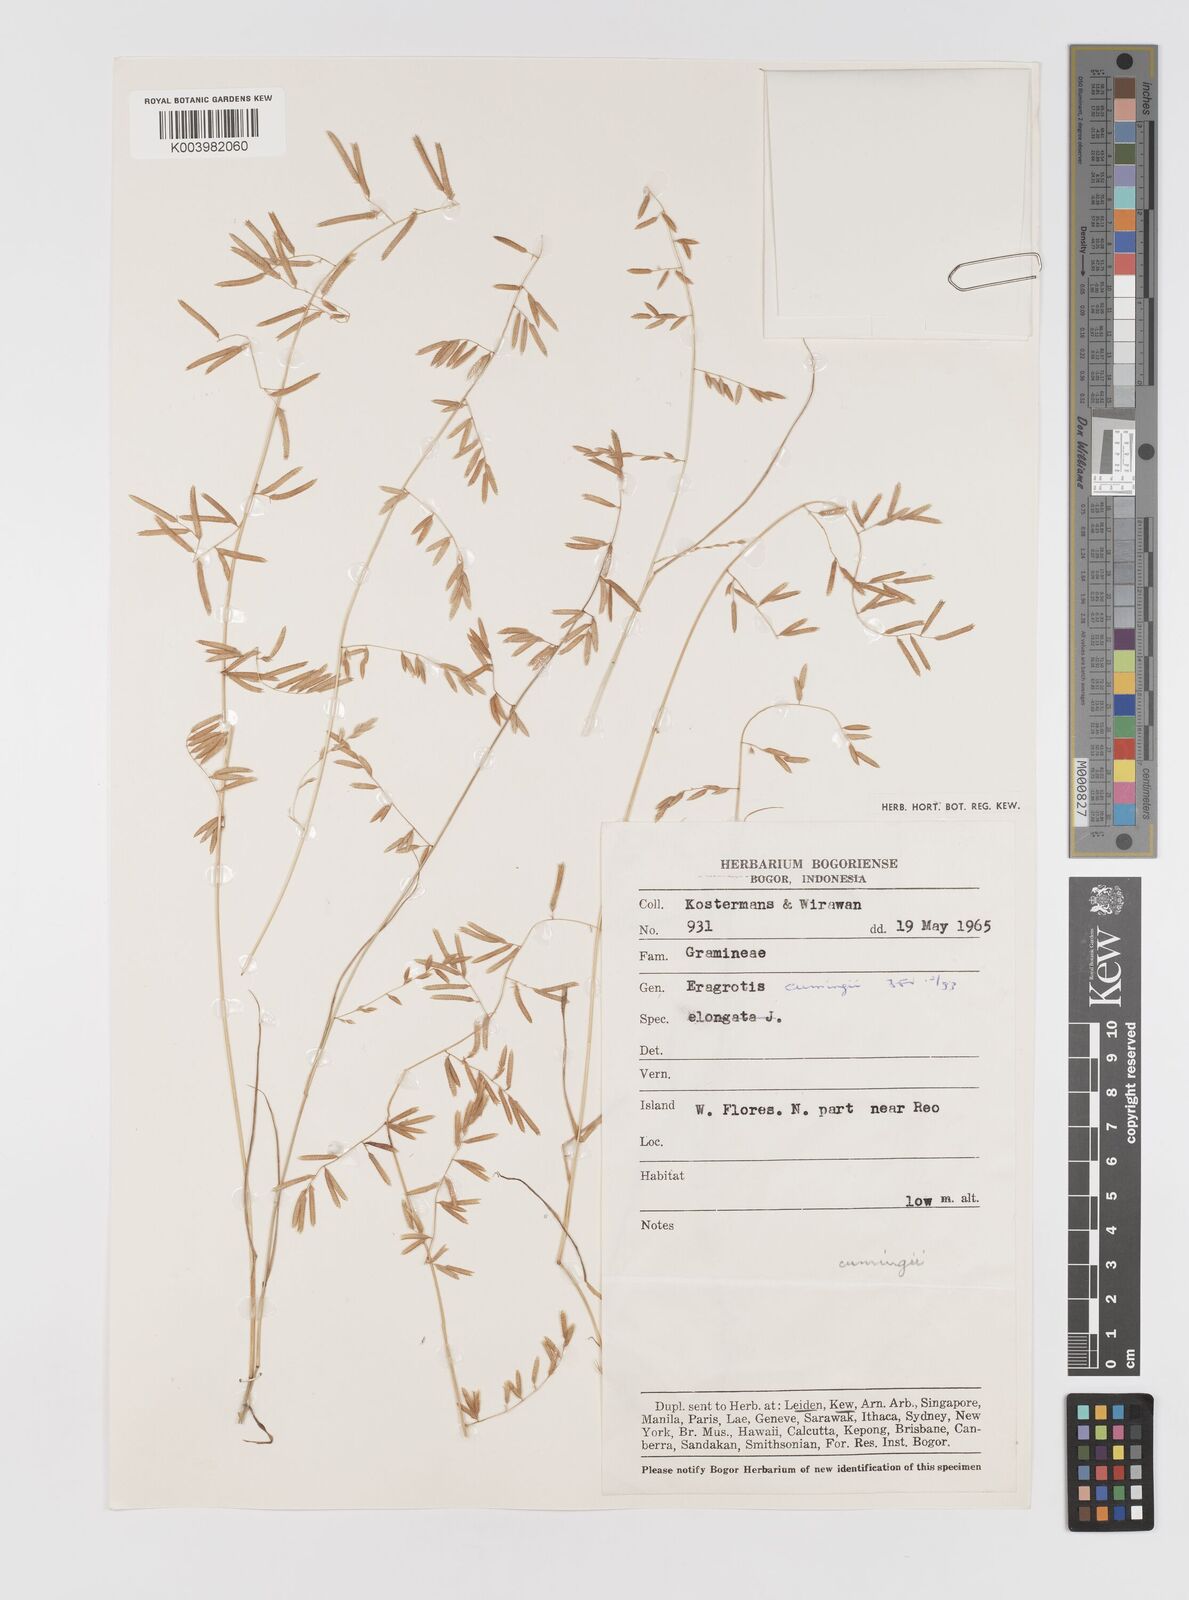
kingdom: Plantae
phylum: Tracheophyta
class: Liliopsida
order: Poales
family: Poaceae
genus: Eragrostis
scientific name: Eragrostis cumingii
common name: Cuming's lovegrass
